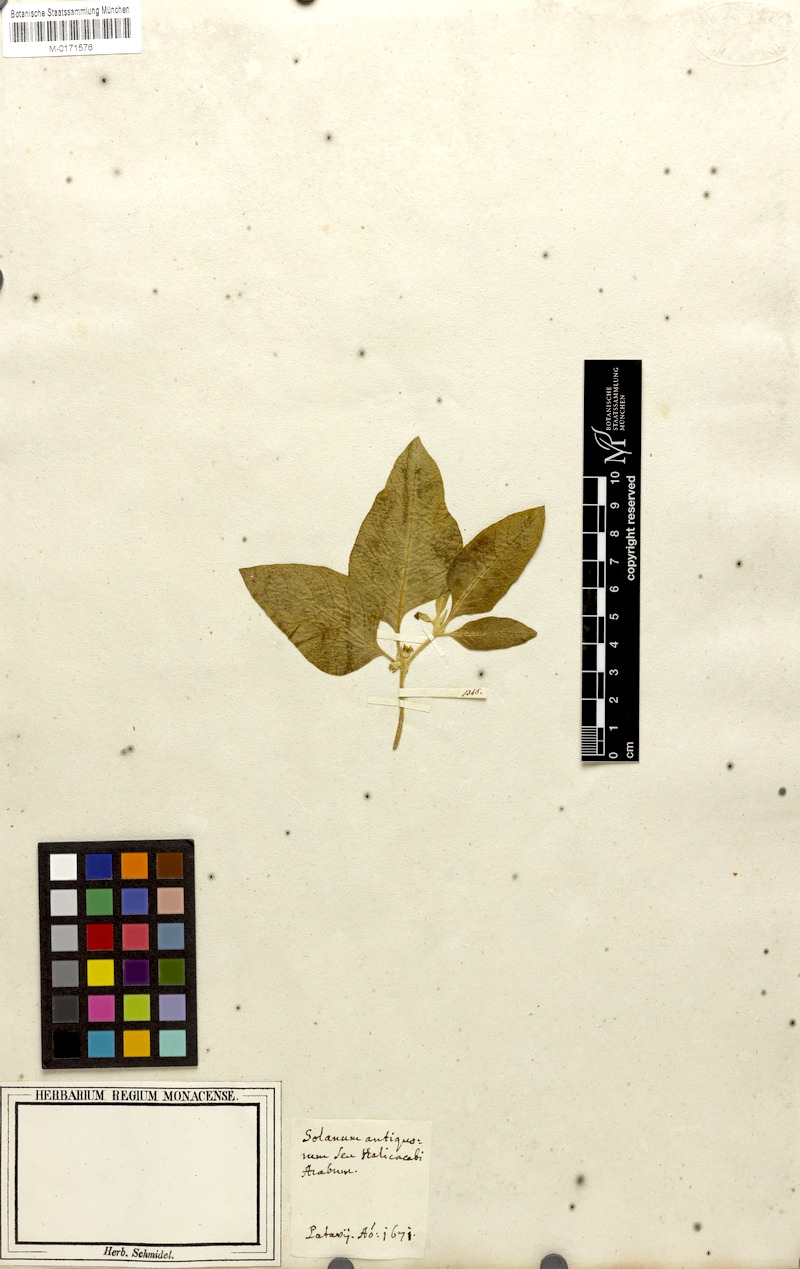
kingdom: Plantae
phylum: Tracheophyta
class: Magnoliopsida
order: Solanales
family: Solanaceae
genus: Withania
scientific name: Withania somnifera
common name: Winter-cherry
